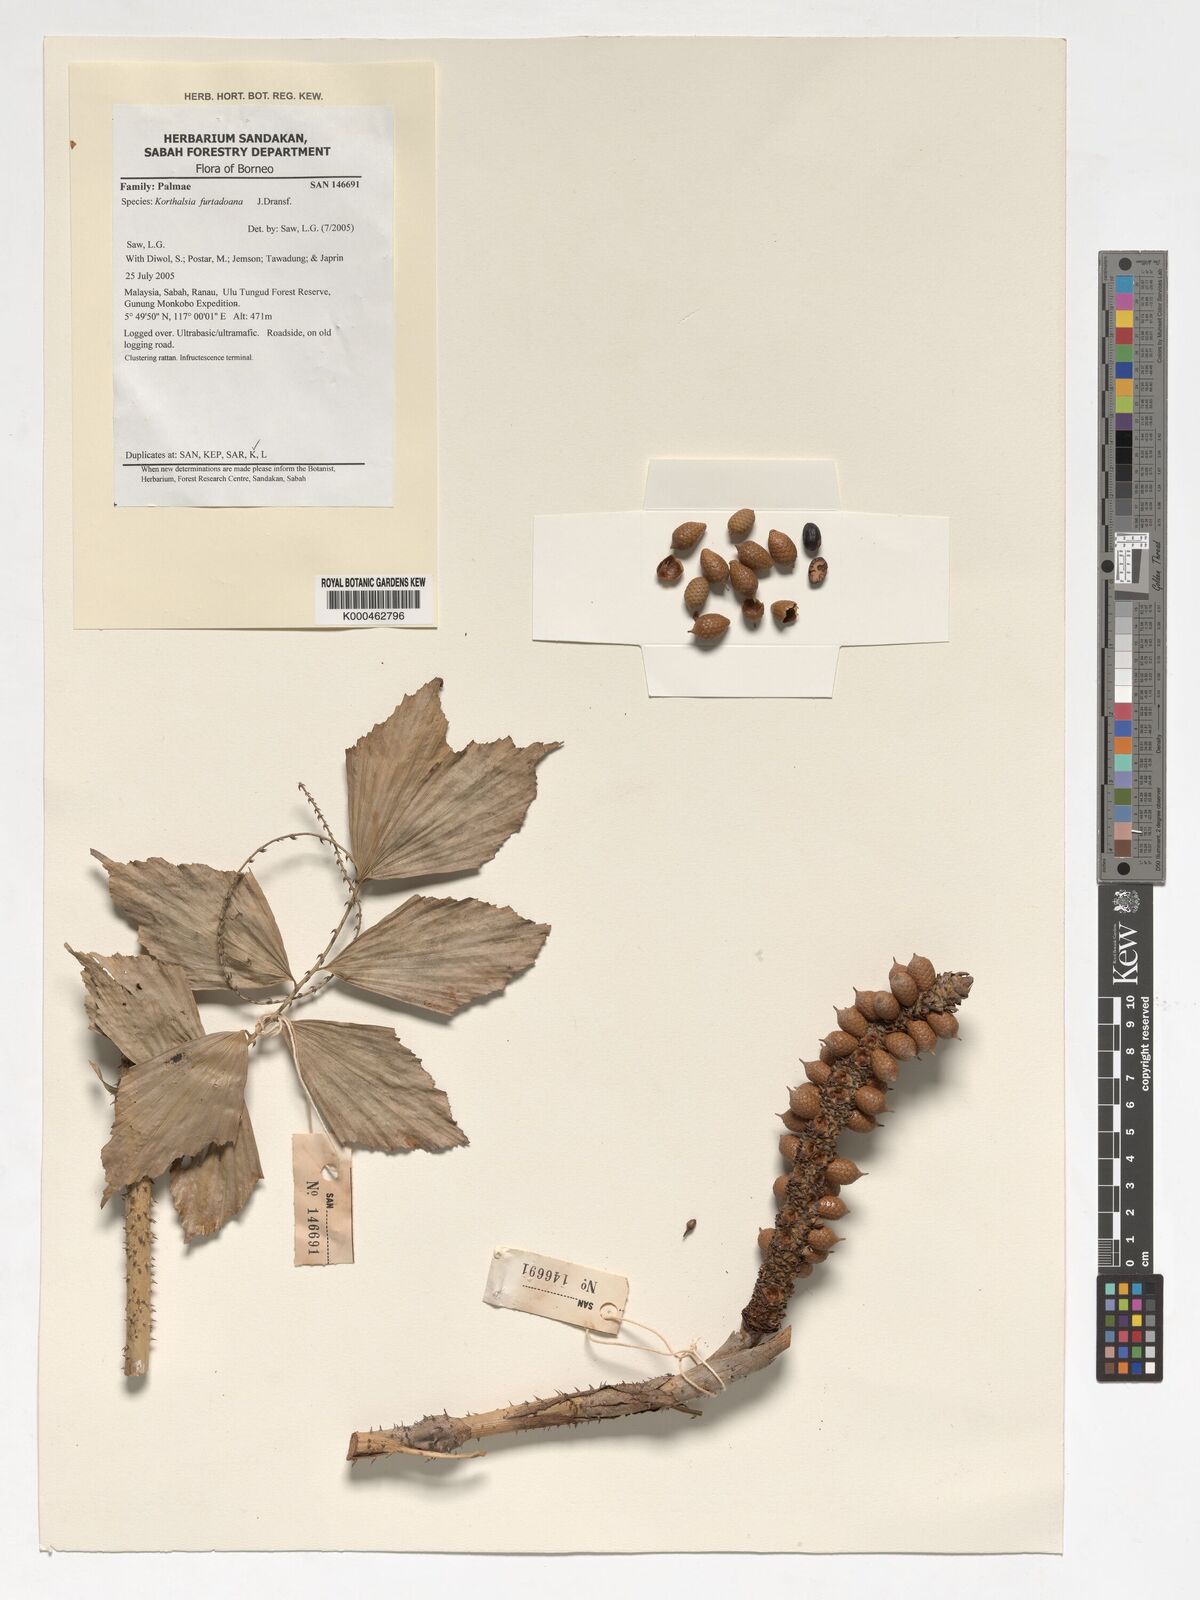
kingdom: Plantae
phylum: Tracheophyta
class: Liliopsida
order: Arecales
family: Arecaceae
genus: Korthalsia
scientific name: Korthalsia furtadoana
